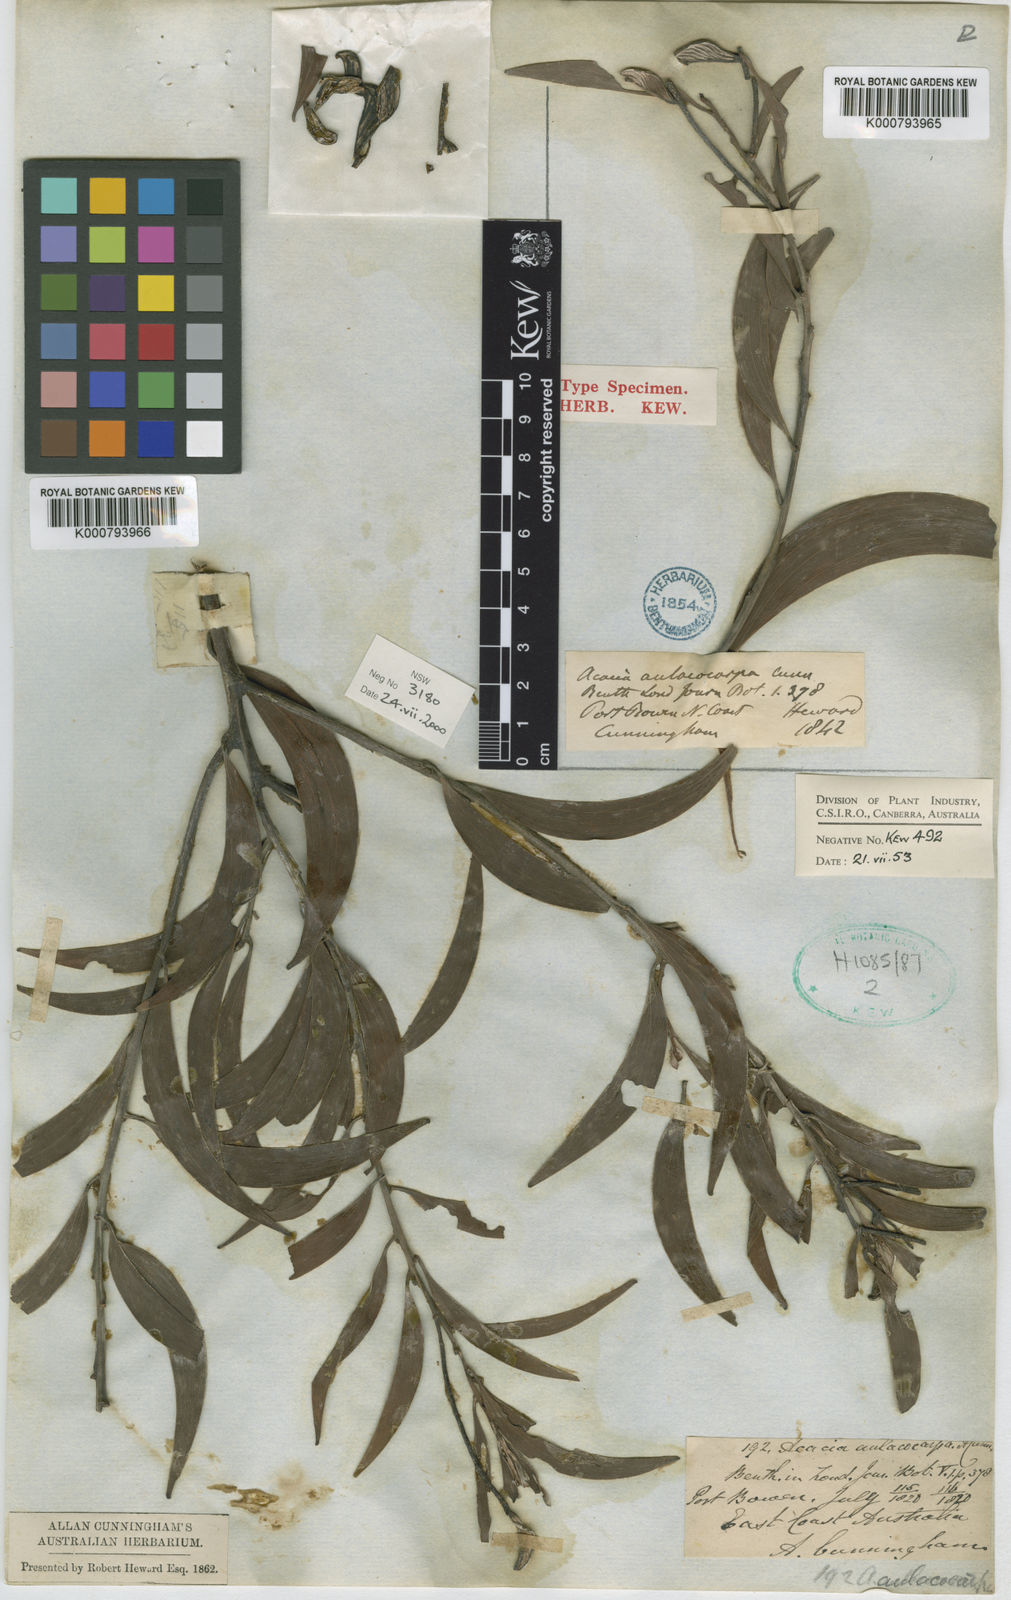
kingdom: Plantae
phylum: Tracheophyta
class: Magnoliopsida
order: Fabales
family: Fabaceae
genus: Acacia
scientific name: Acacia aulacocarpa
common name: Black wattle
